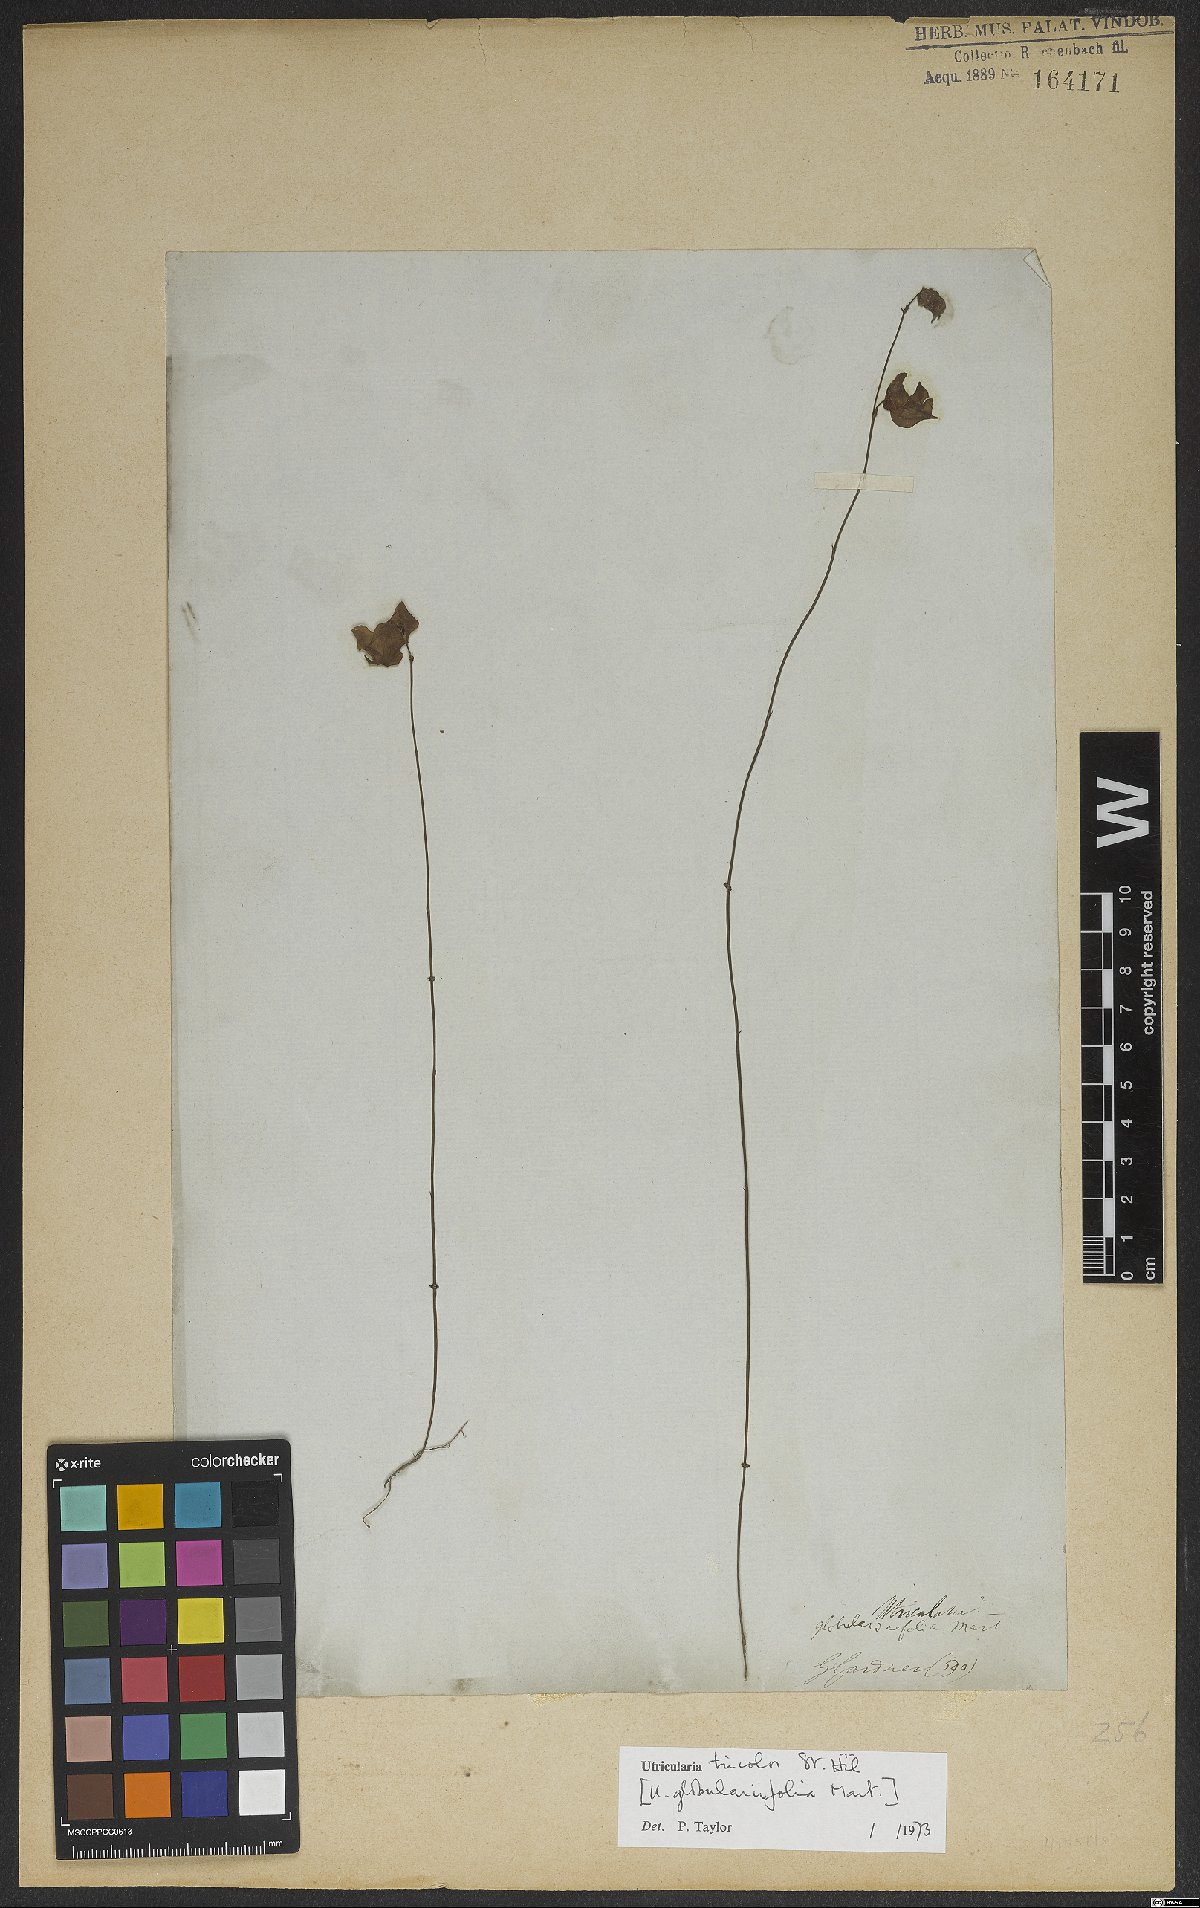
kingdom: Plantae
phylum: Tracheophyta
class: Magnoliopsida
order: Lamiales
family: Lentibulariaceae
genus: Utricularia
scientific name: Utricularia tricolor
